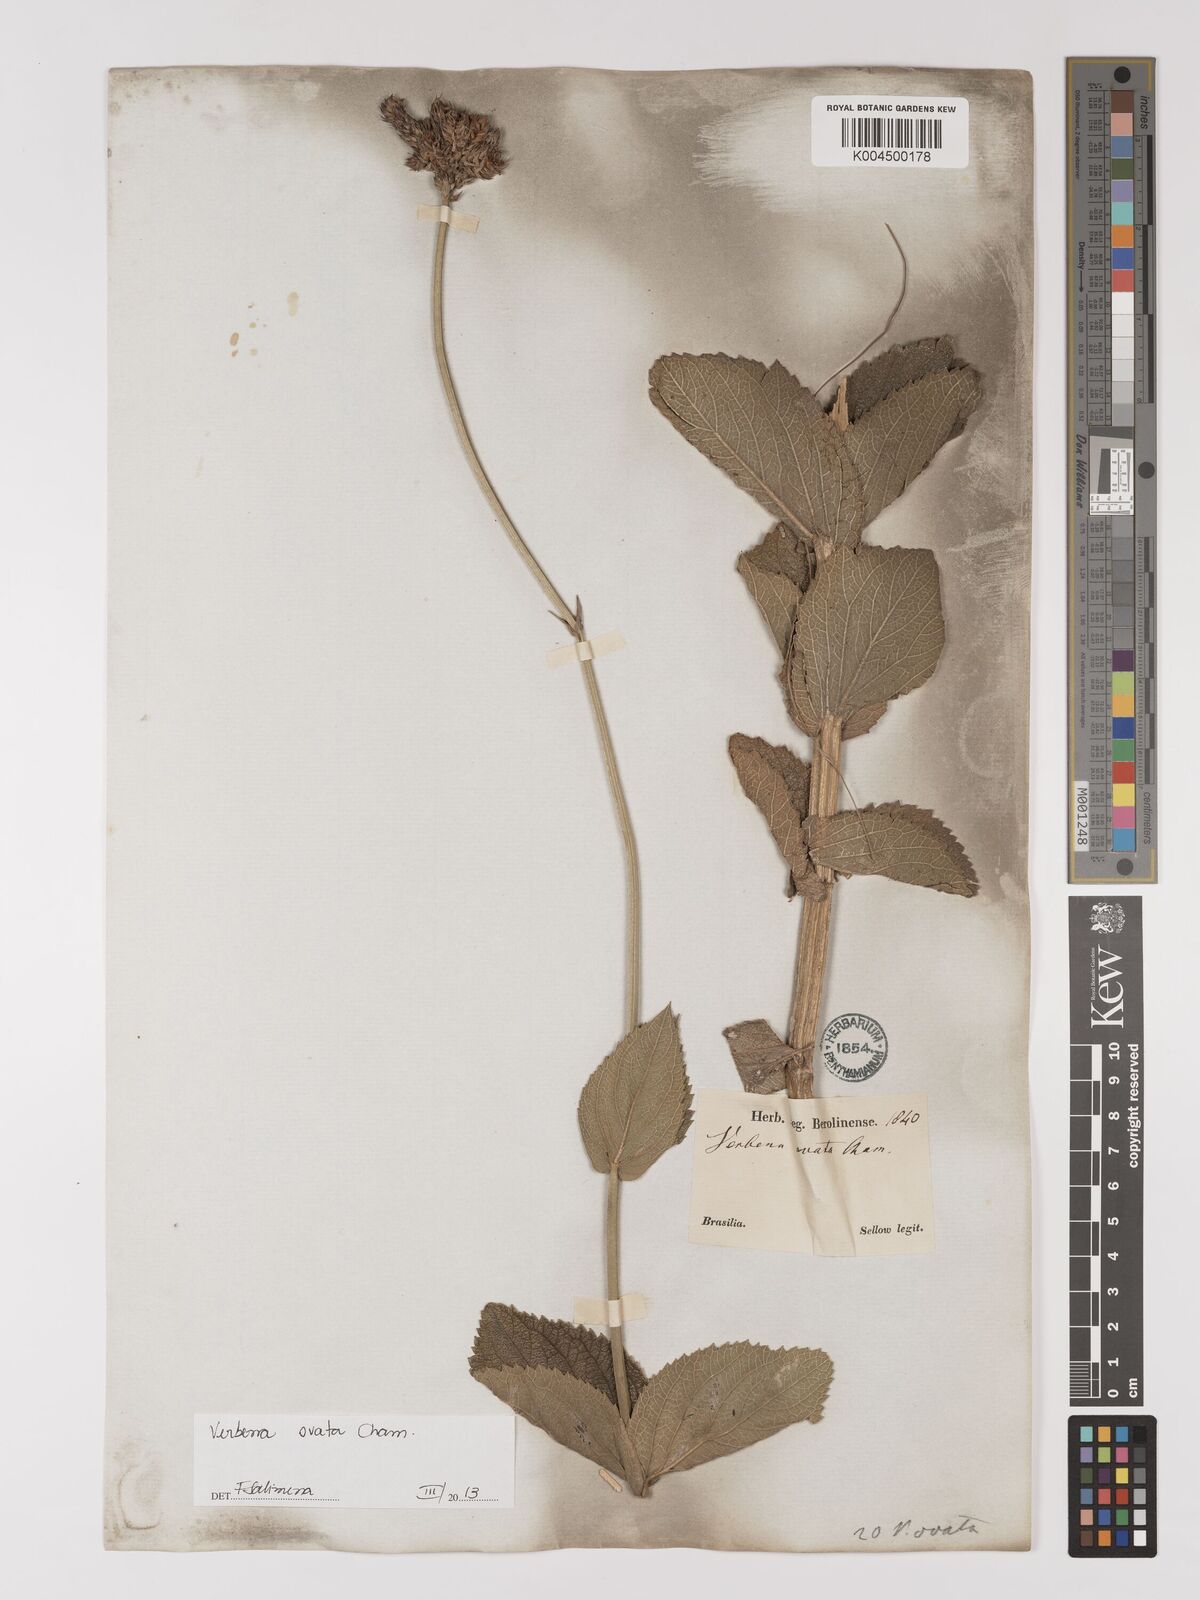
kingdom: Plantae
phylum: Tracheophyta
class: Magnoliopsida
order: Lamiales
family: Verbenaceae
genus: Verbena
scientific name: Verbena ovata
